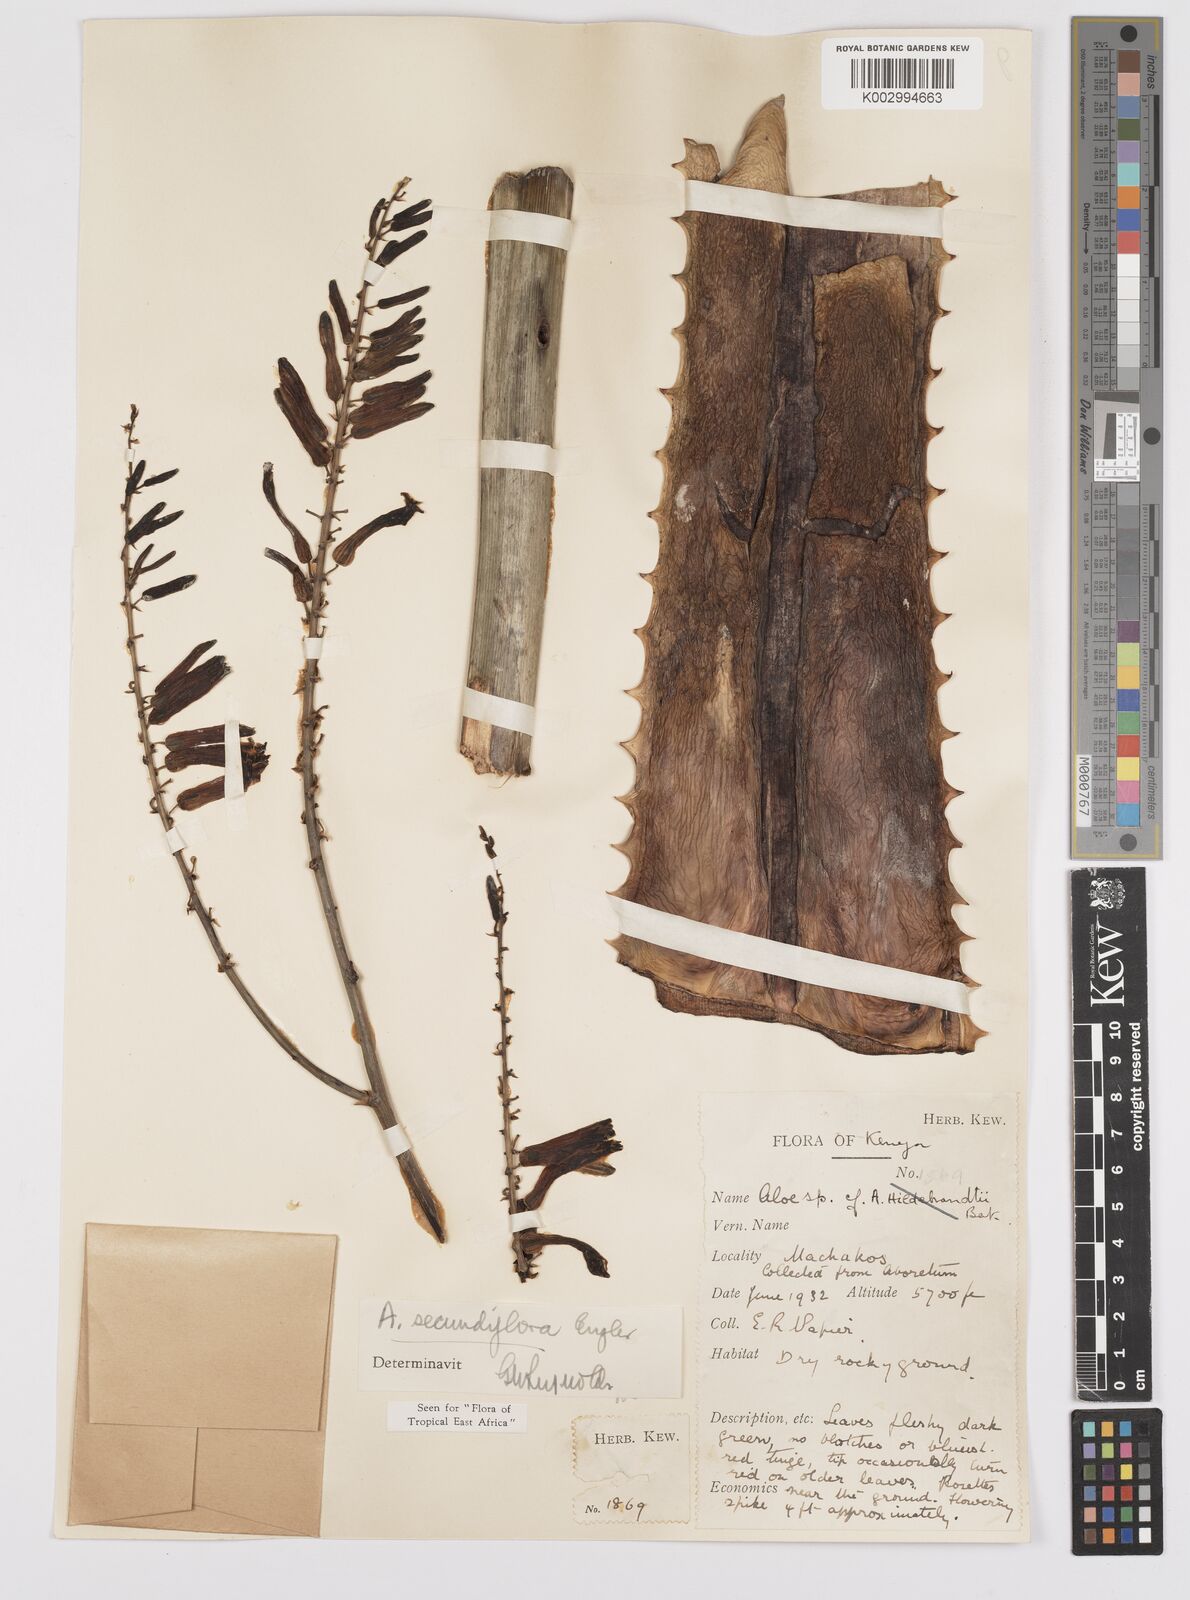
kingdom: Plantae
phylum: Tracheophyta
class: Liliopsida
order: Asparagales
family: Asphodelaceae
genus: Aloe
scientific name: Aloe secundiflora
